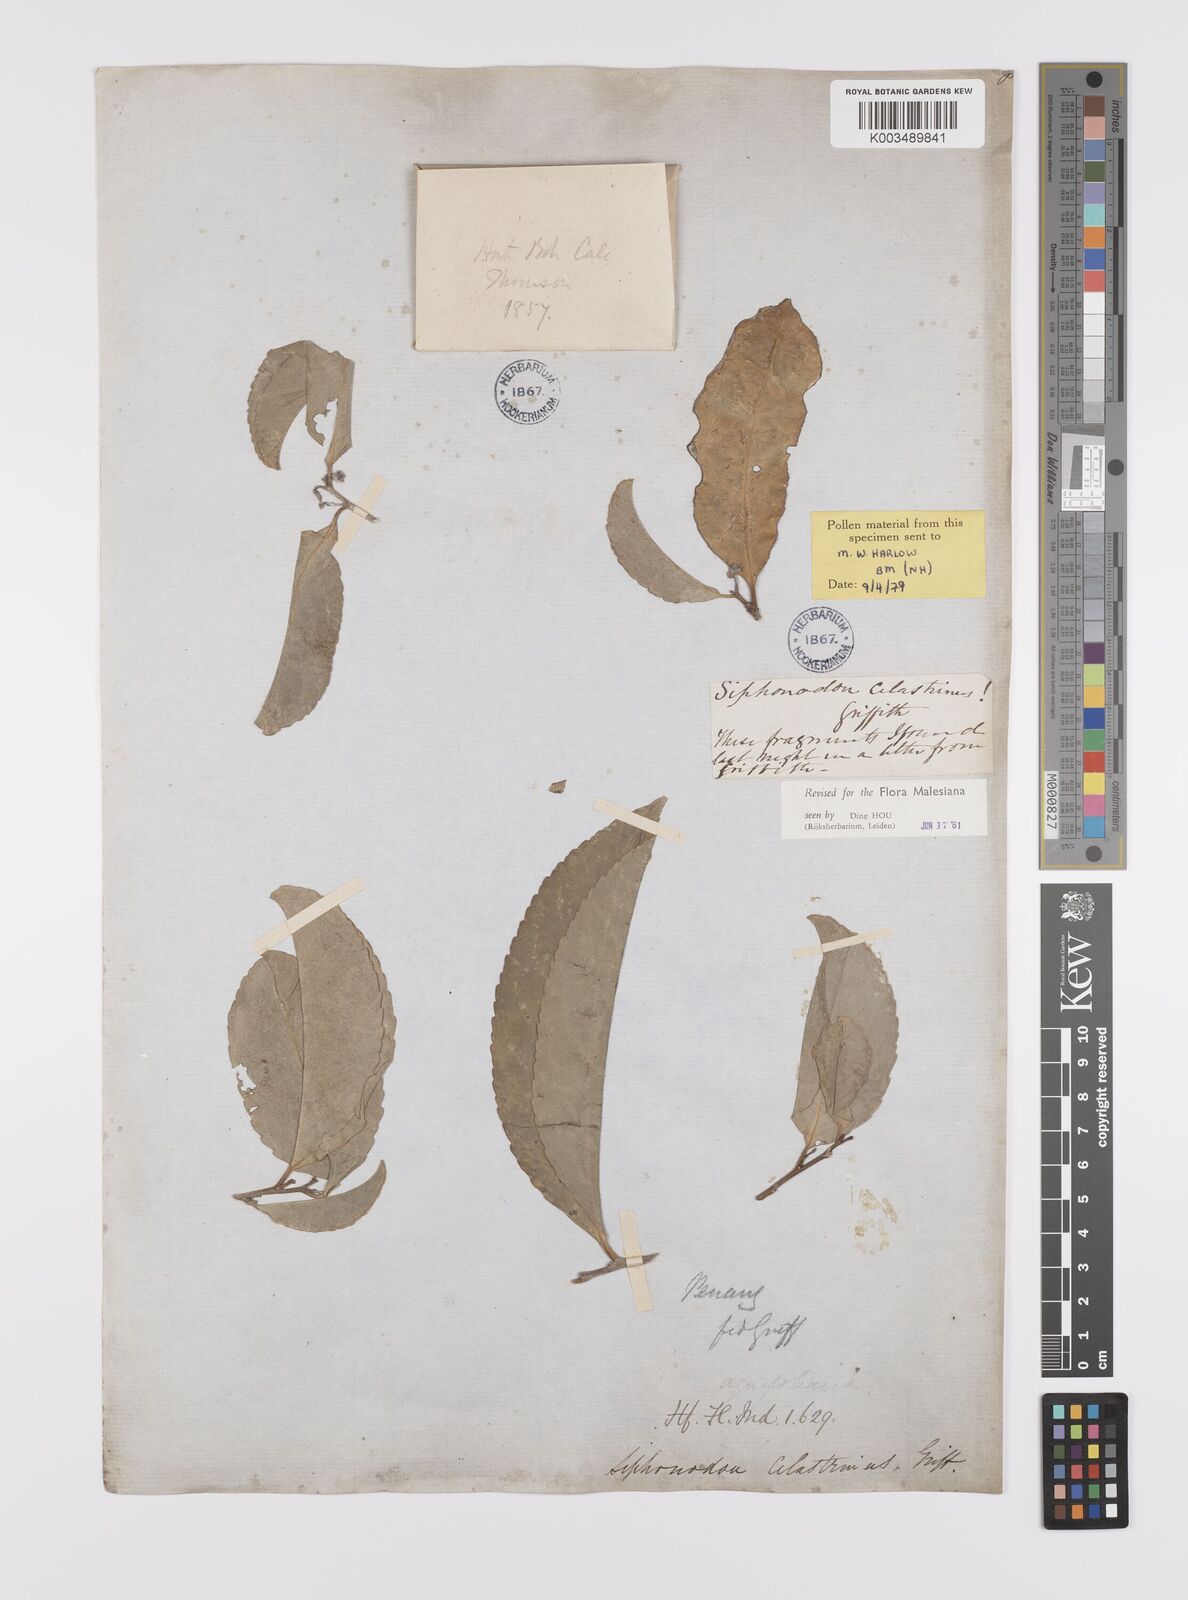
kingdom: Plantae
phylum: Tracheophyta
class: Magnoliopsida
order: Celastrales
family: Celastraceae
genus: Siphonodon
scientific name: Siphonodon celastrineus
